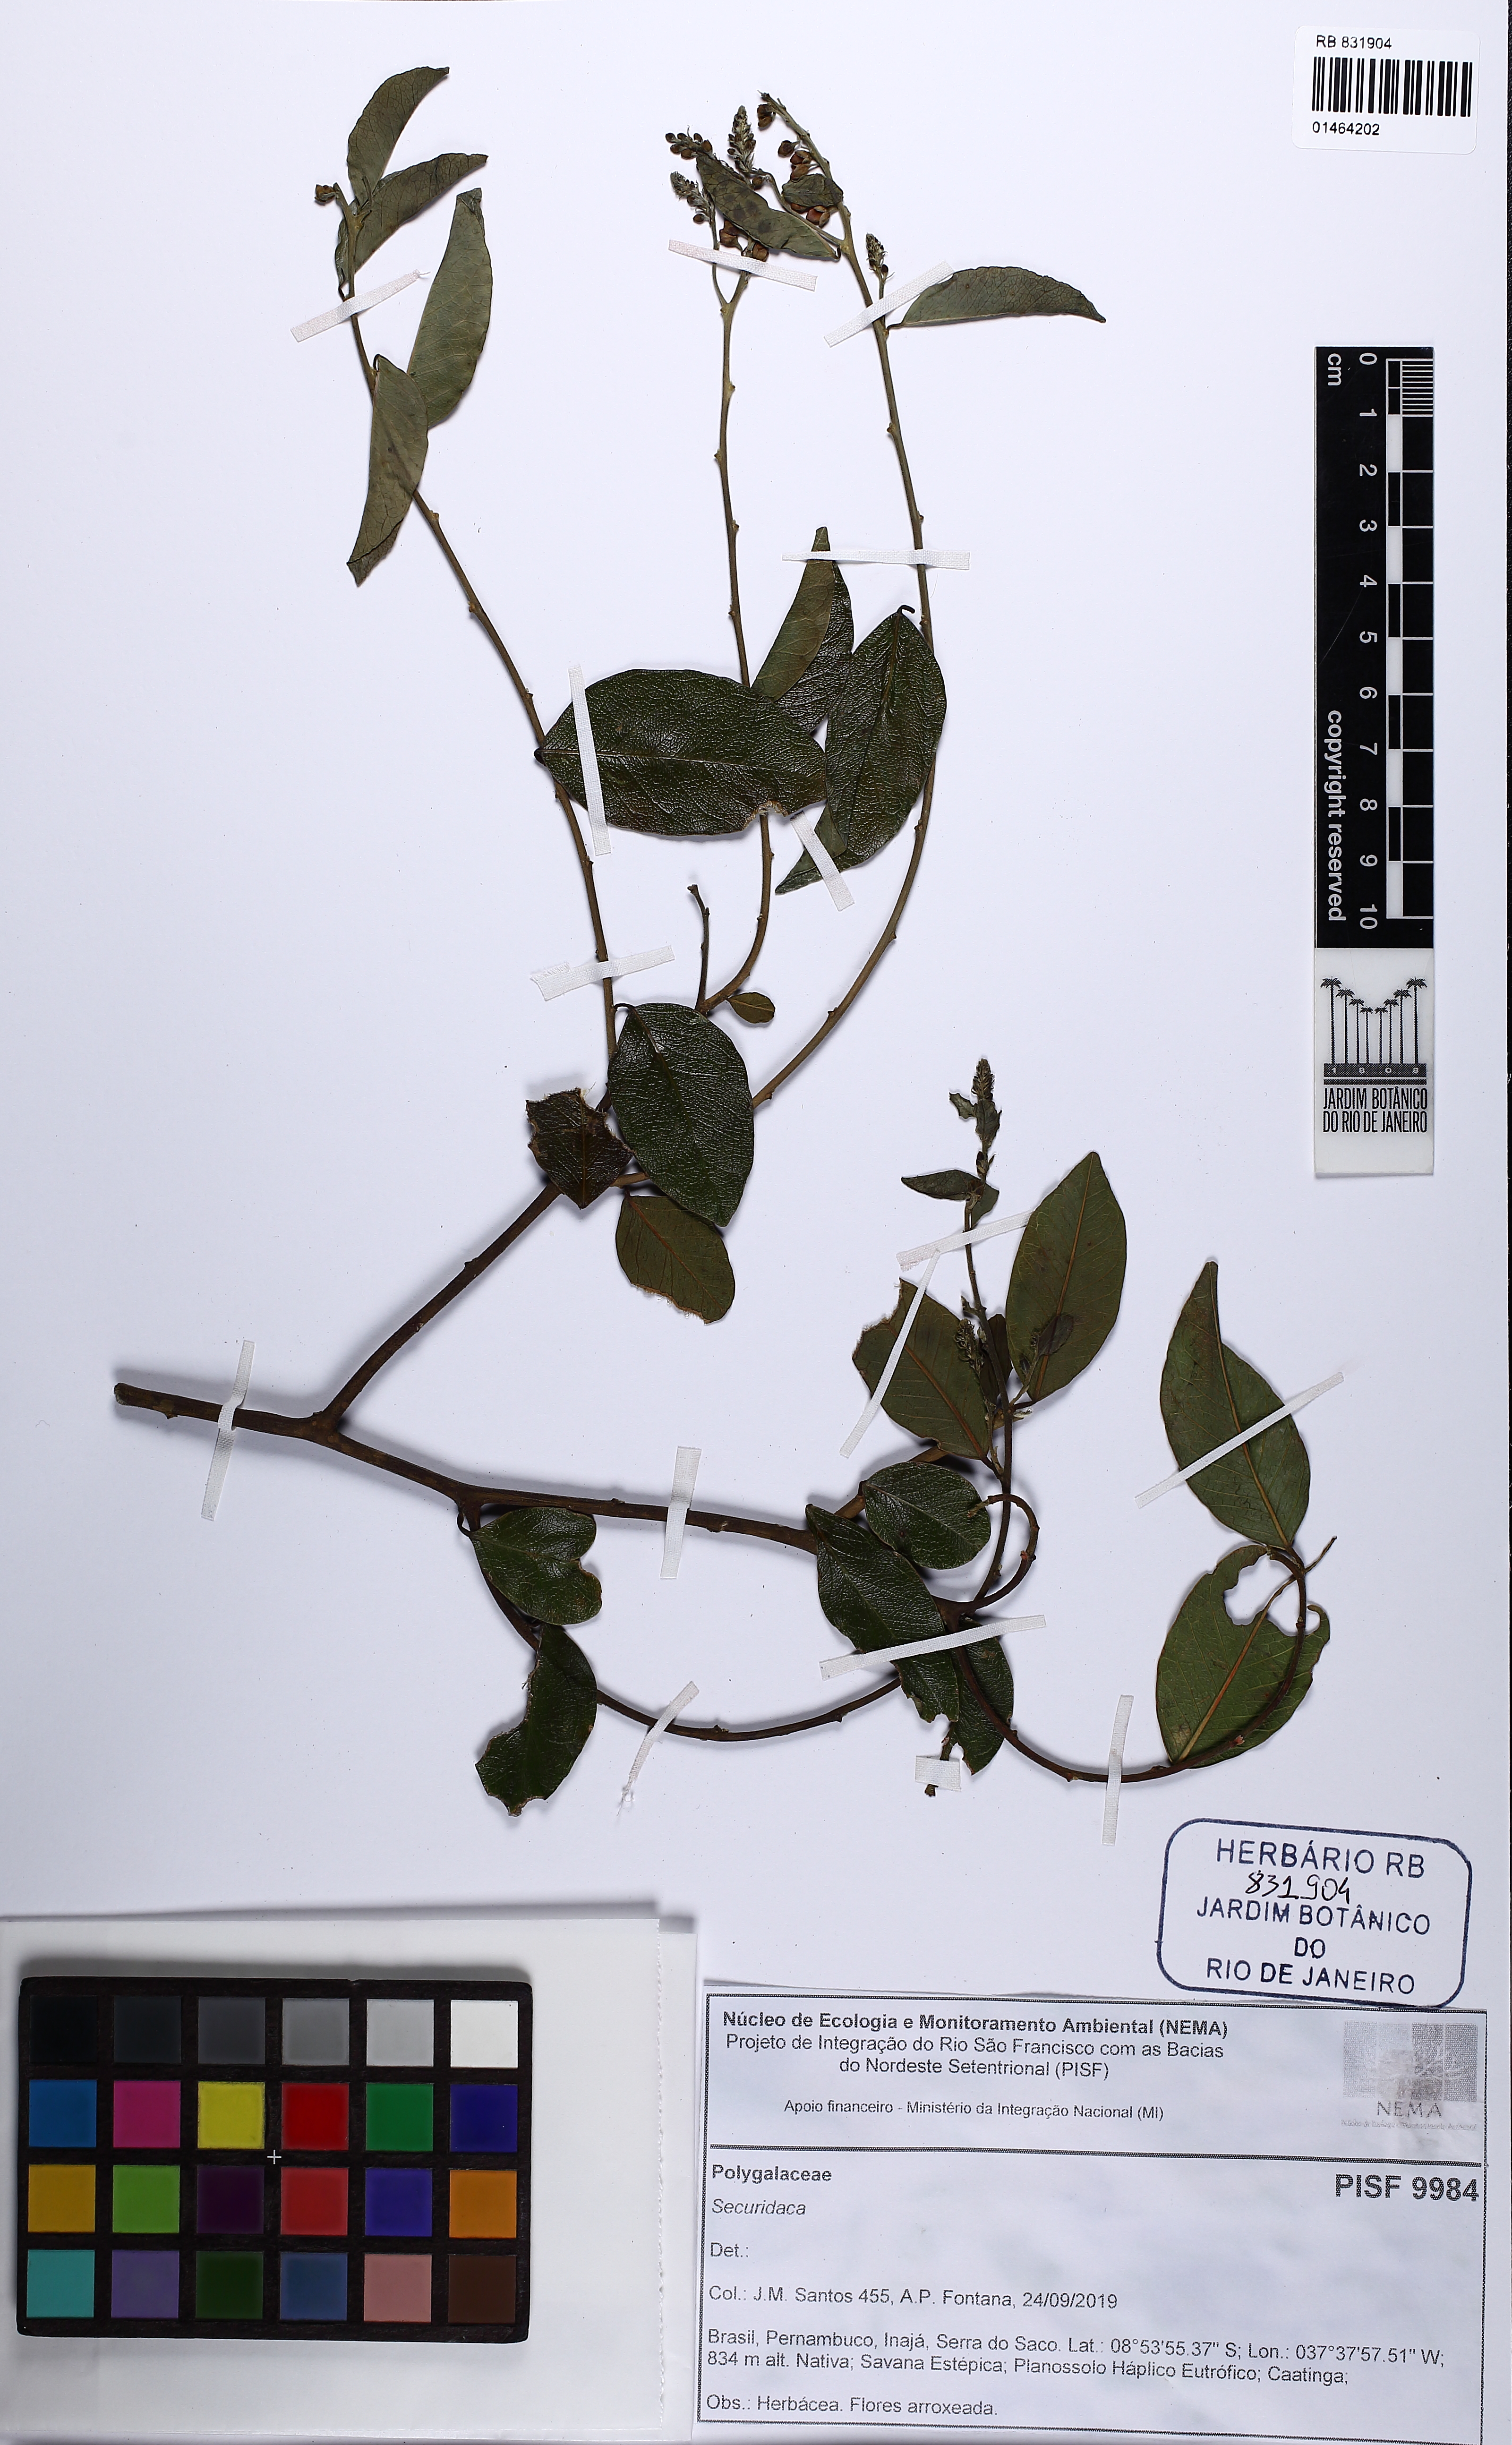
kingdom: Plantae
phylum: Tracheophyta
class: Magnoliopsida
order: Fabales
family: Polygalaceae
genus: Securidaca
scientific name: Securidaca
